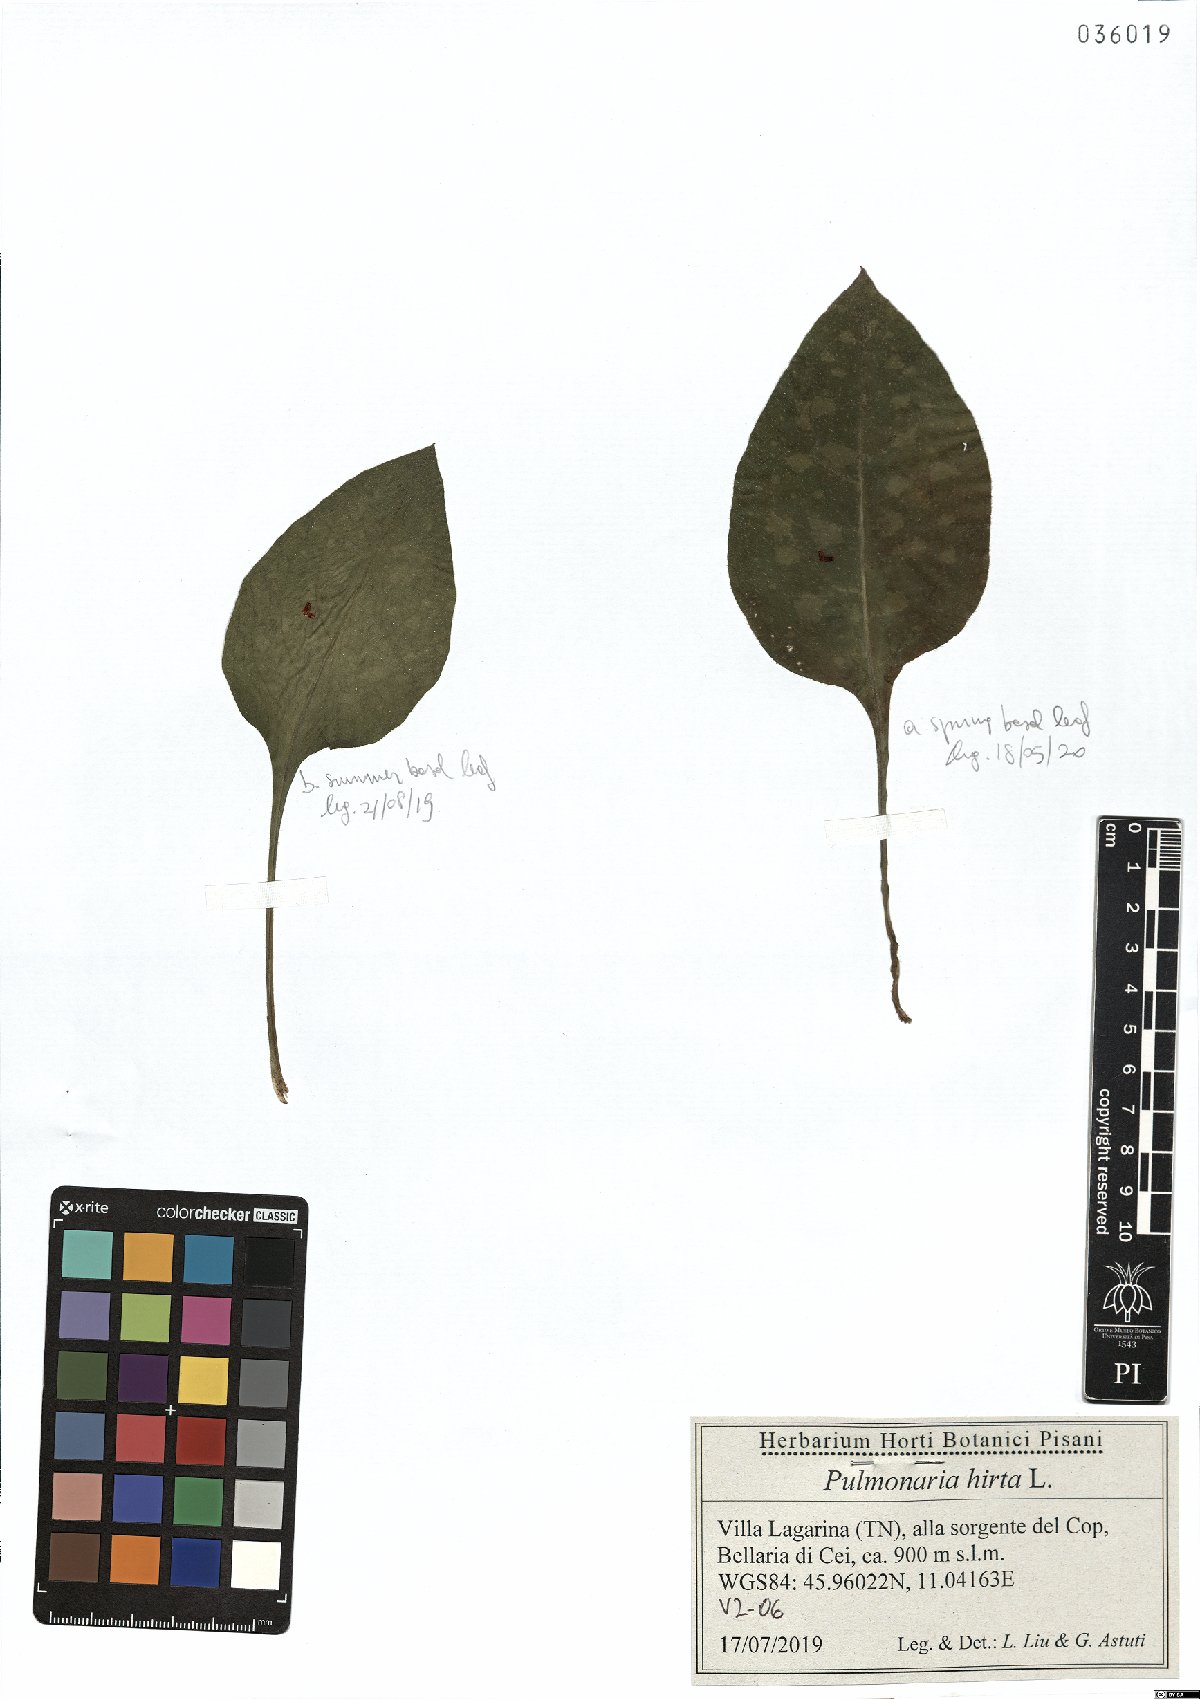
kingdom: Plantae
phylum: Tracheophyta
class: Magnoliopsida
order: Boraginales
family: Boraginaceae
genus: Pulmonaria
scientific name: Pulmonaria hirta
